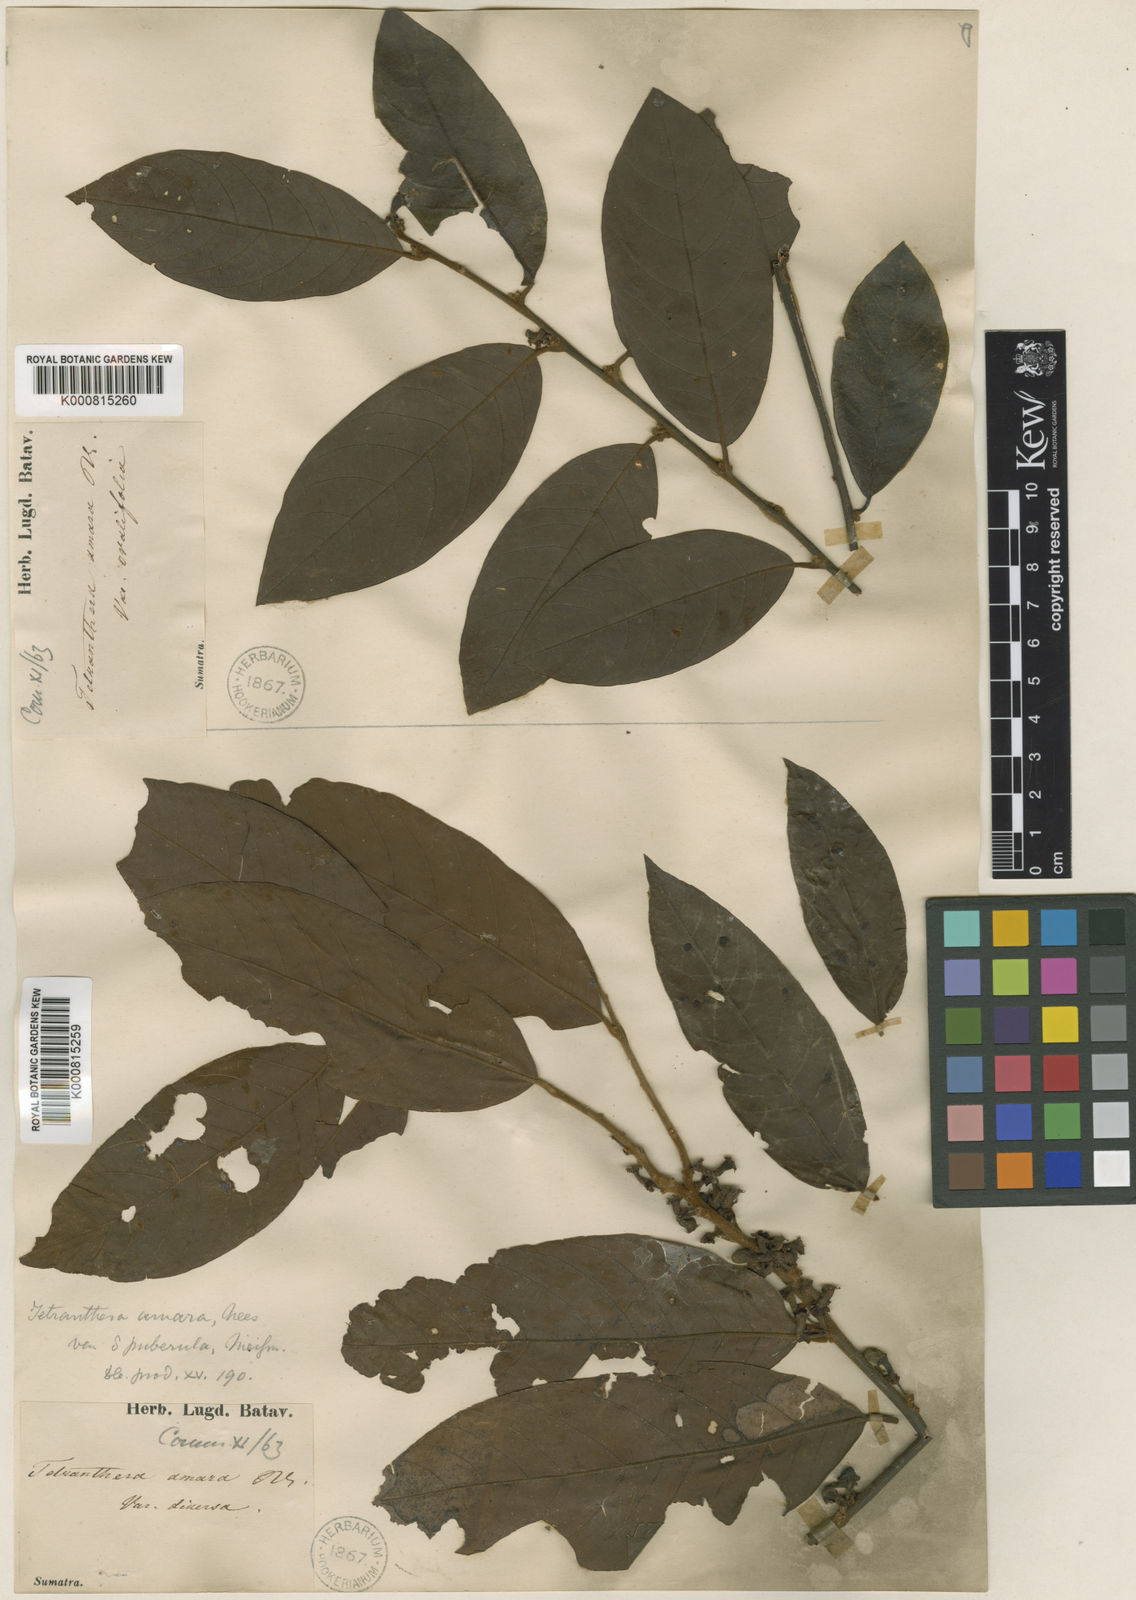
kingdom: Plantae
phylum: Tracheophyta
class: Magnoliopsida
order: Laurales
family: Lauraceae
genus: Litsea
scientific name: Litsea umbellata
